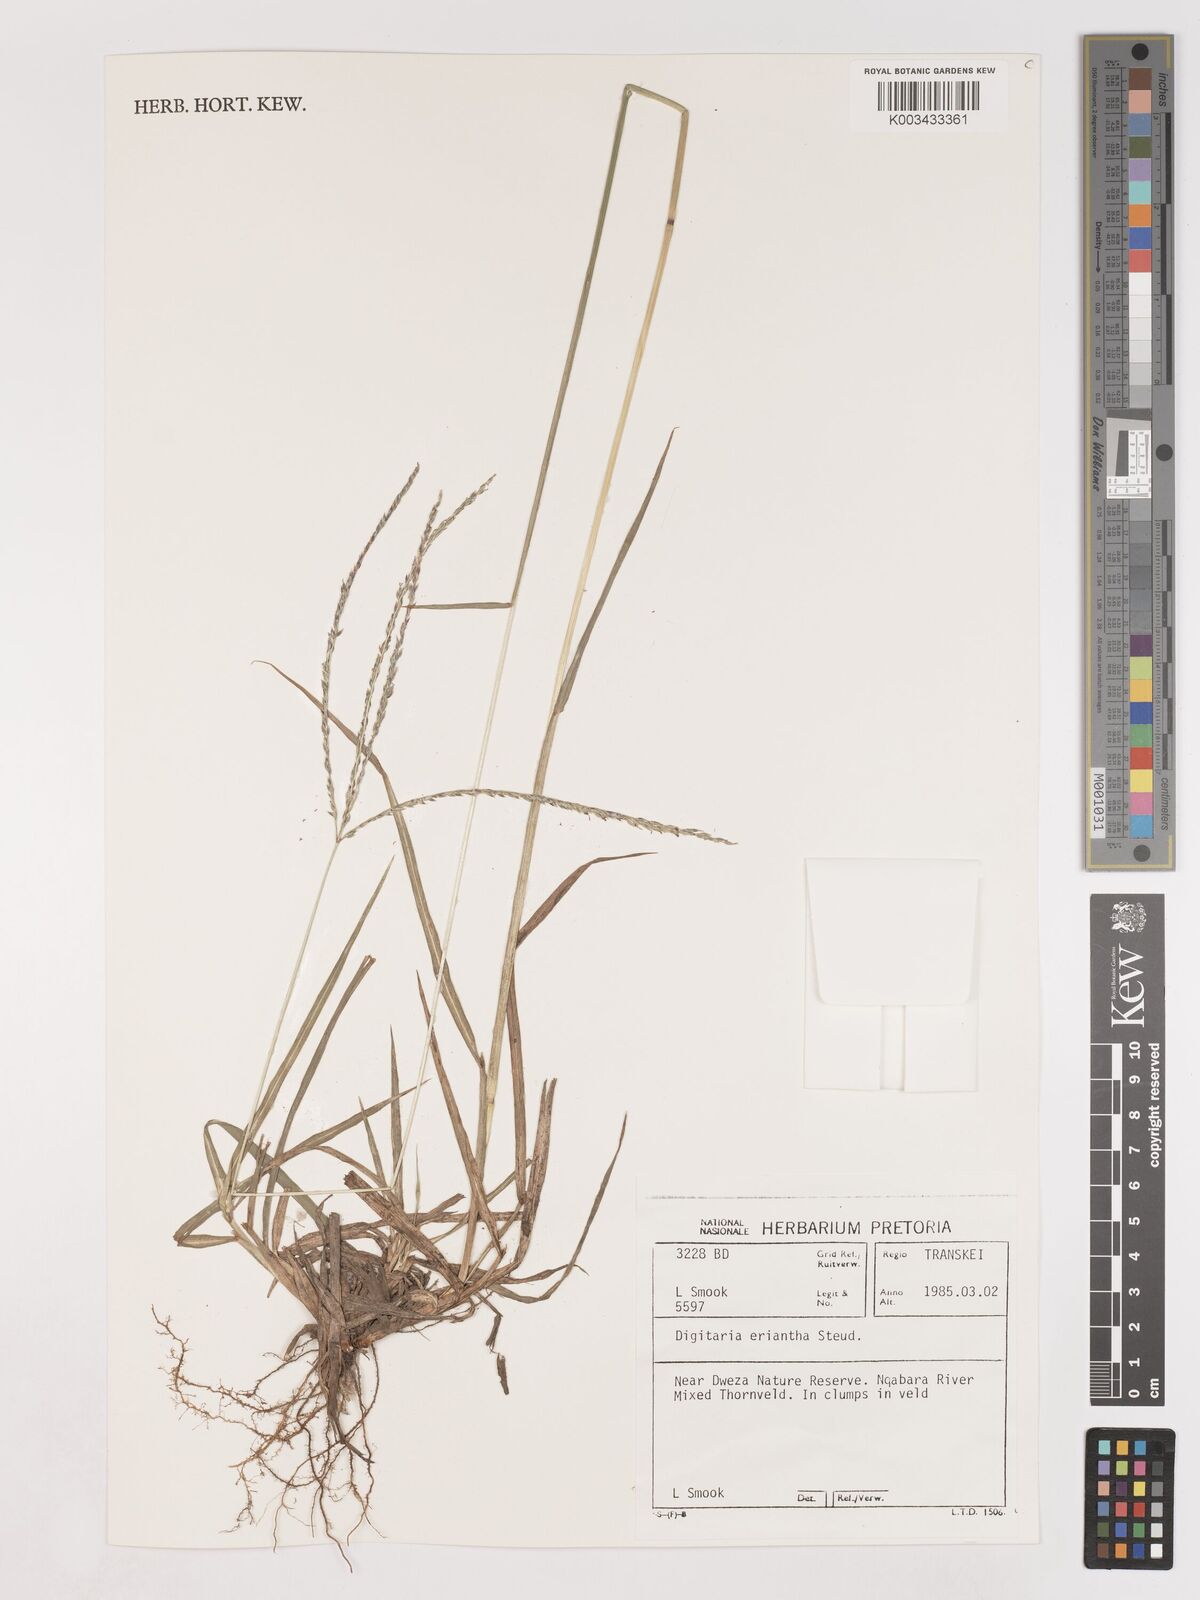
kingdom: Plantae
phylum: Tracheophyta
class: Liliopsida
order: Poales
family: Poaceae
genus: Digitaria
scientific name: Digitaria eriantha
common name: Digitgrass
